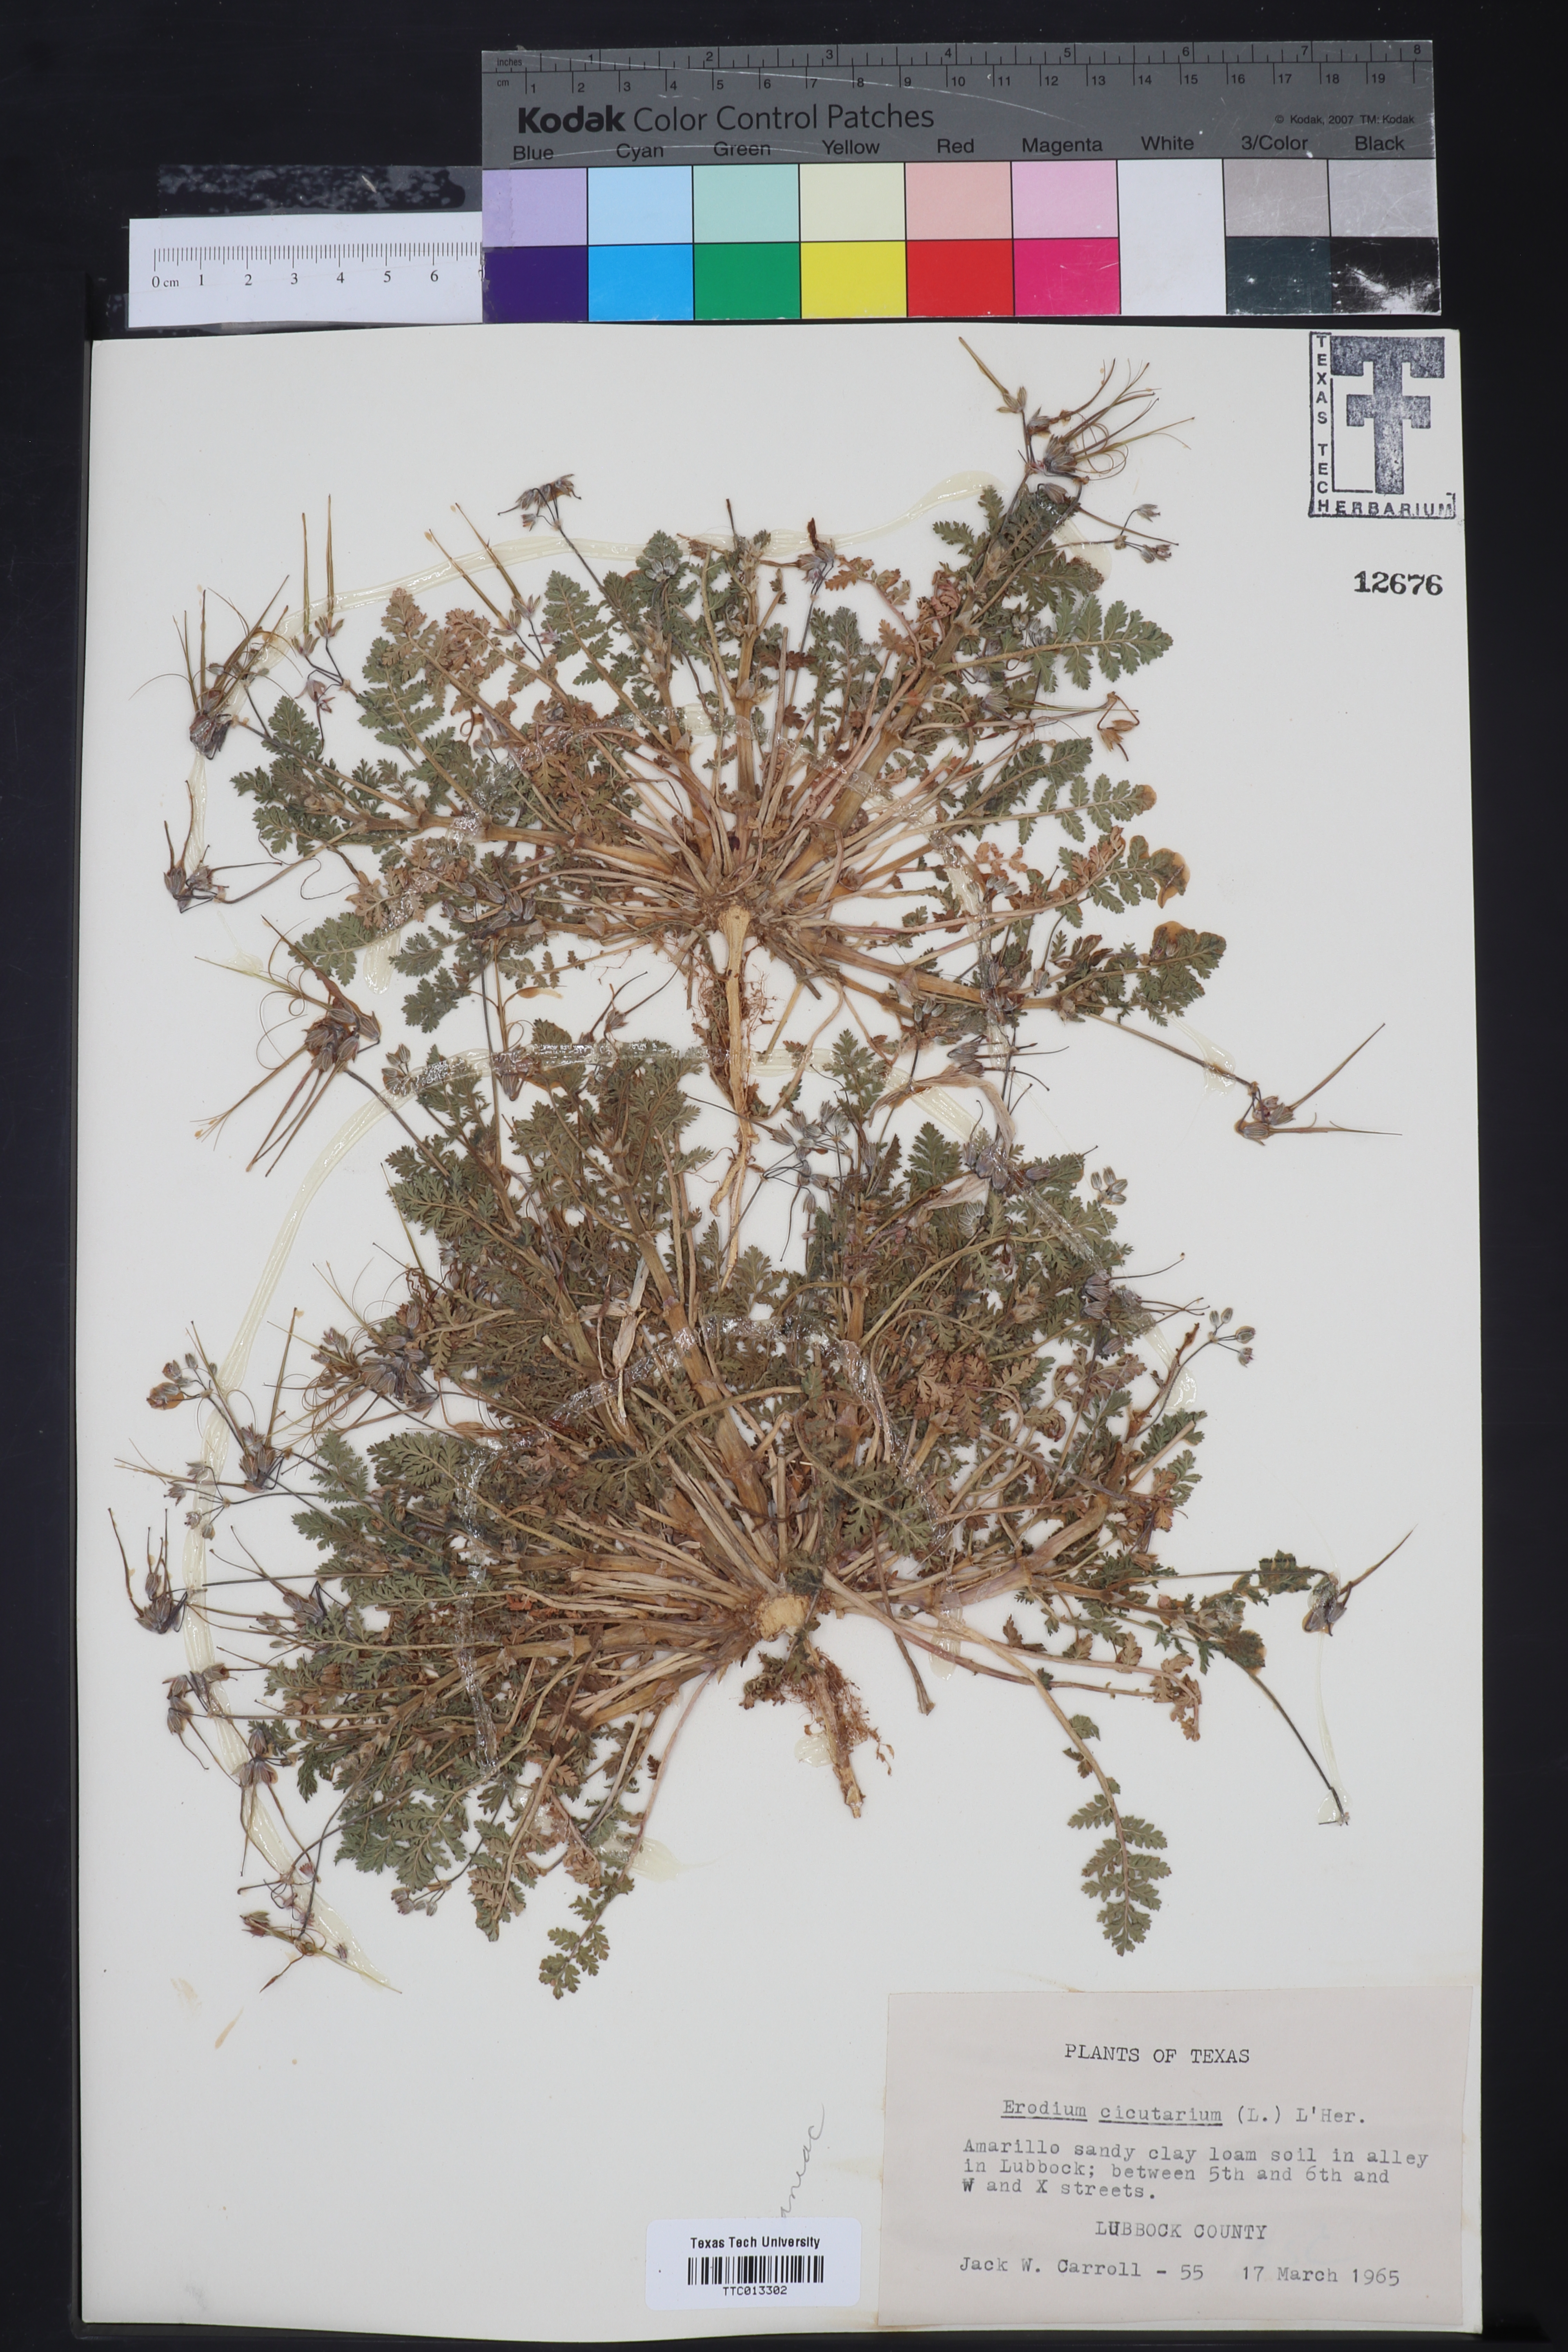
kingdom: Plantae
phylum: Tracheophyta
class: Magnoliopsida
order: Geraniales
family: Geraniaceae
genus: Erodium
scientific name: Erodium cicutarium
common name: Common stork's-bill
